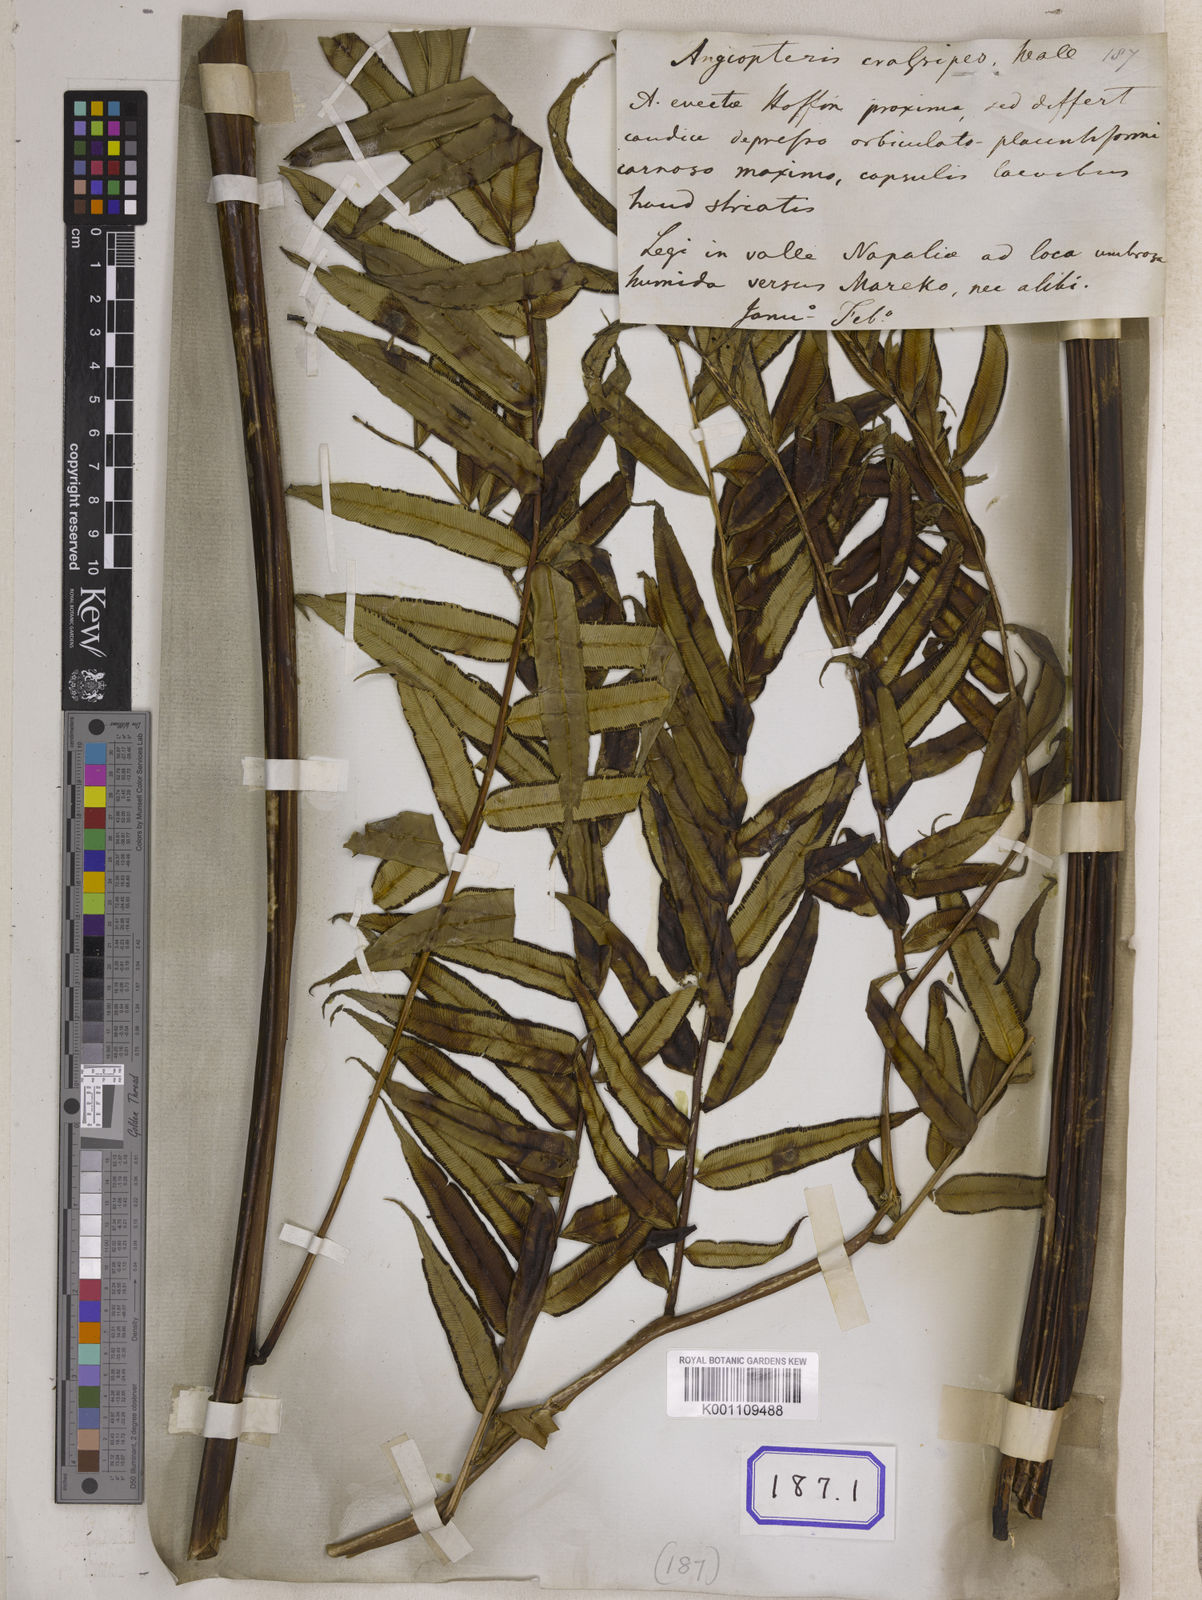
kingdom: Plantae
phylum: Tracheophyta
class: Polypodiopsida
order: Marattiales
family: Marattiaceae
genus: Angiopteris
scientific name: Angiopteris crassipes
